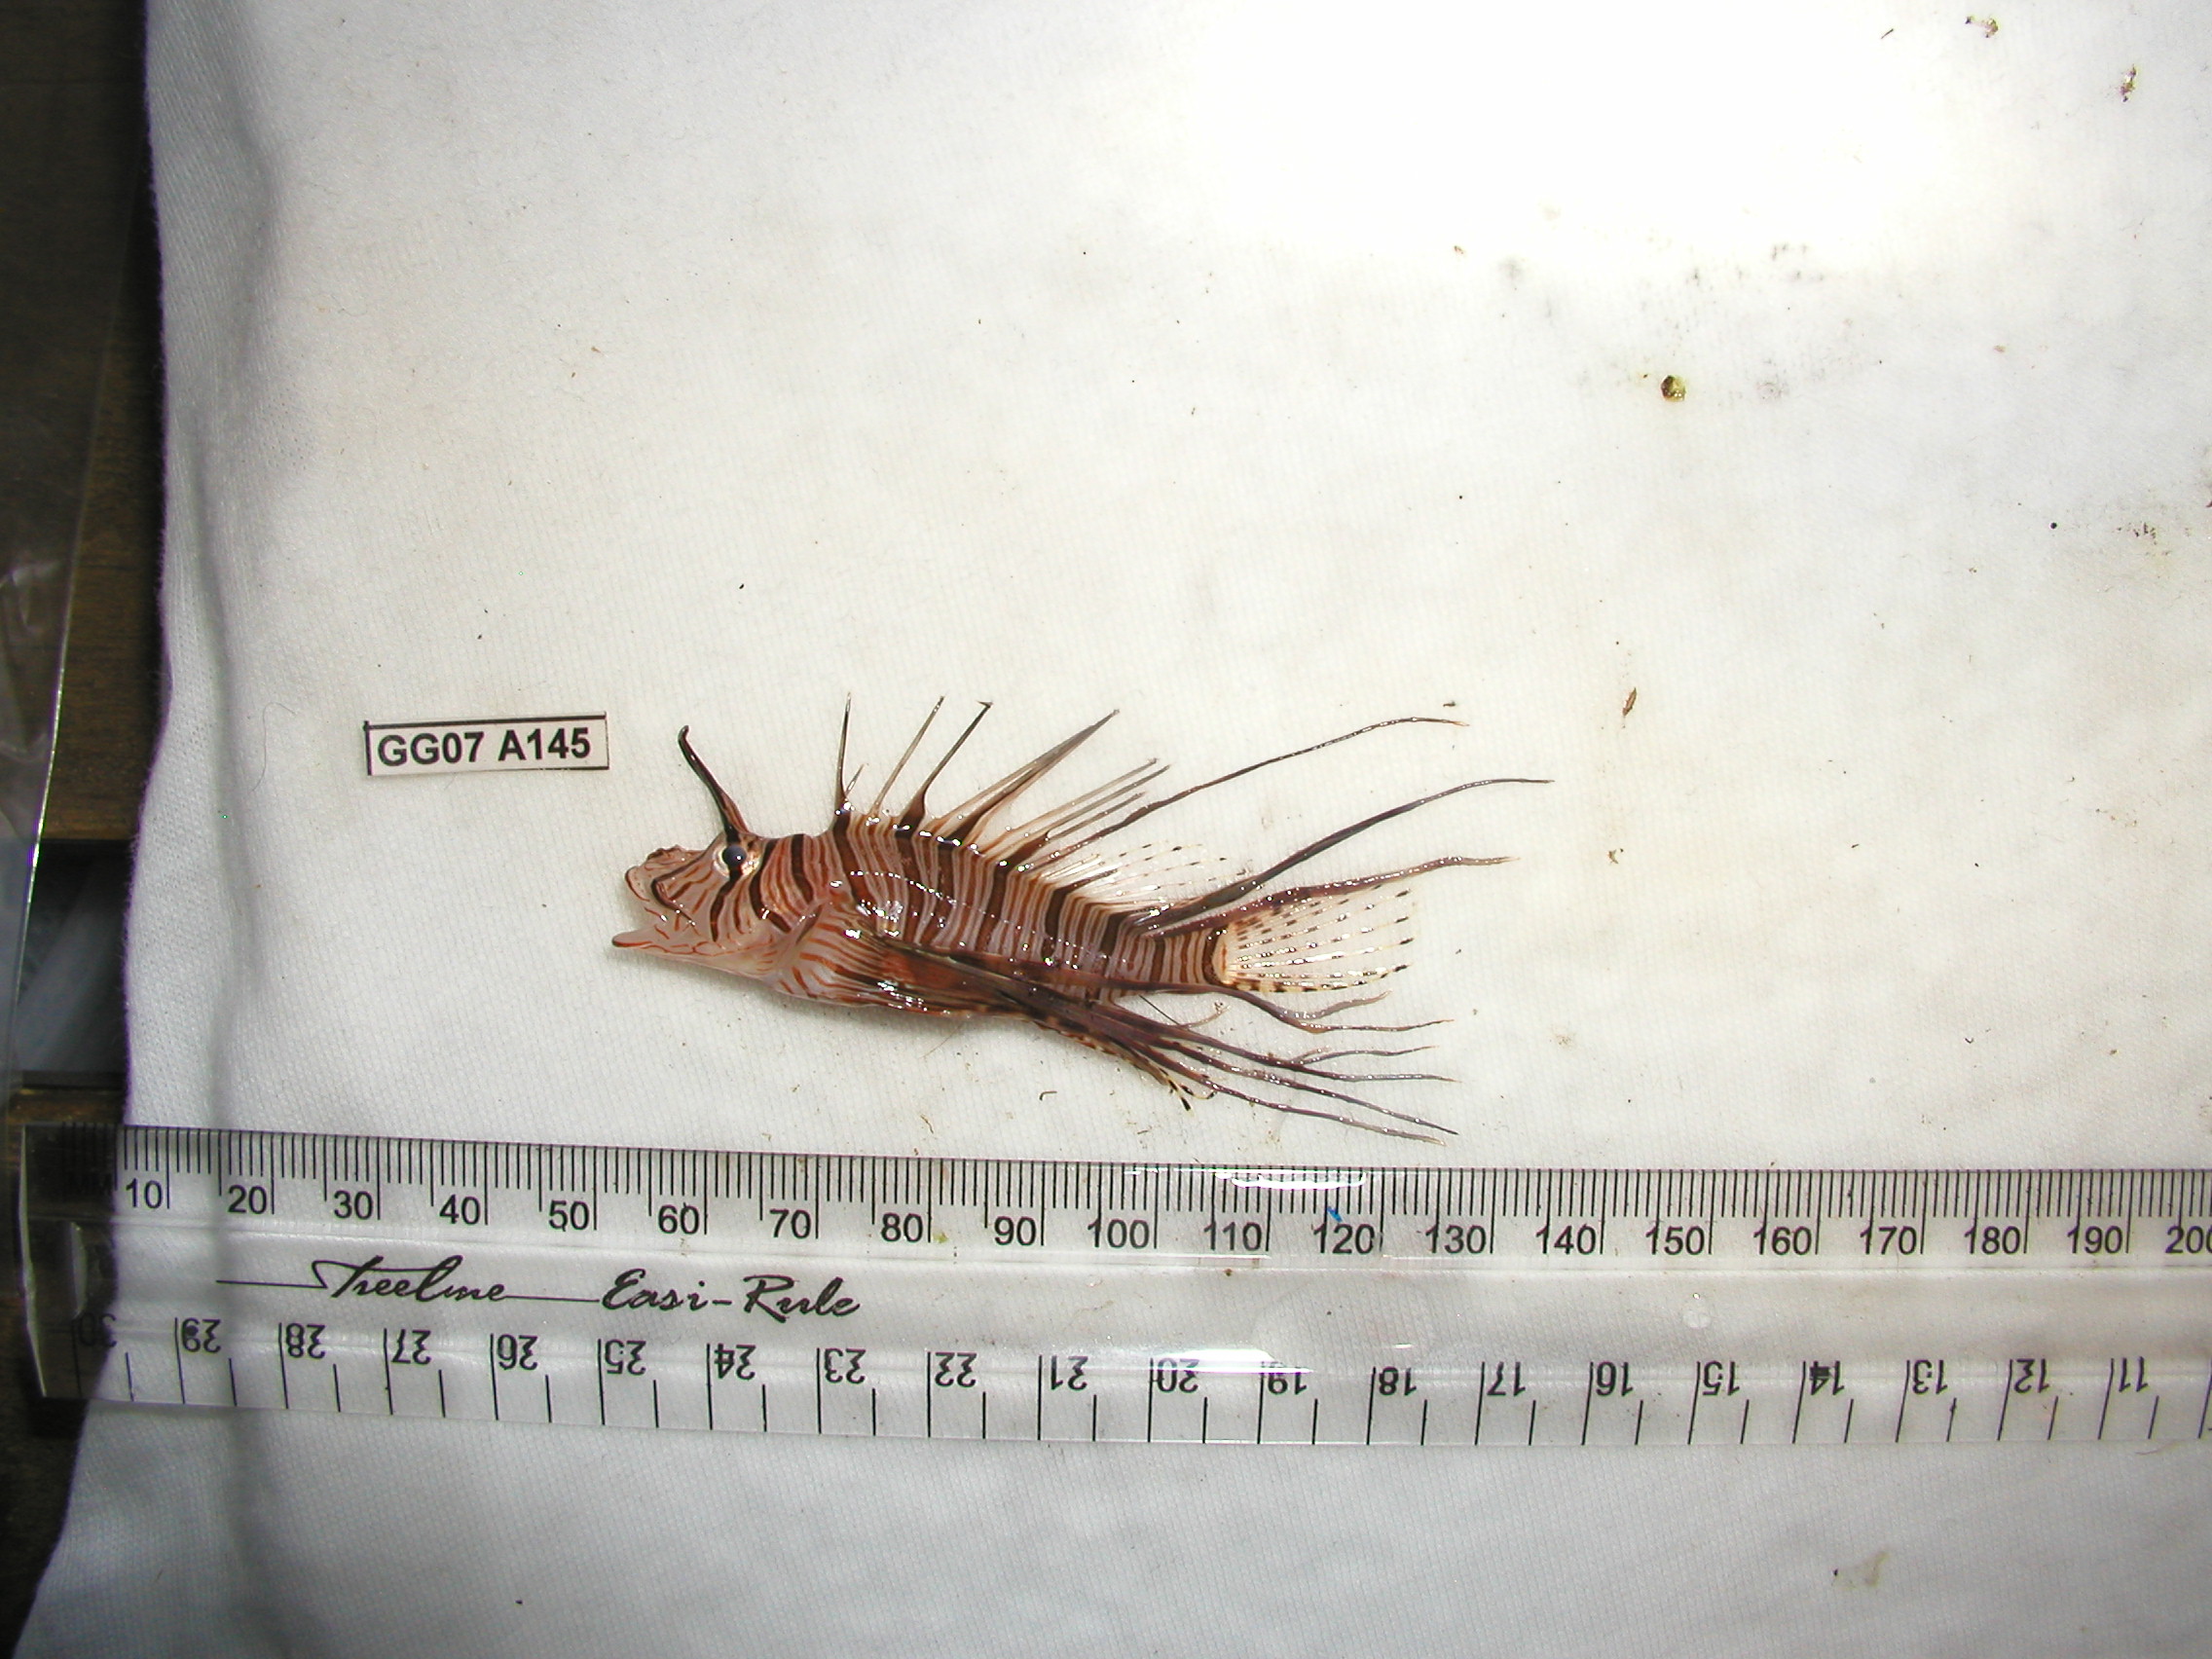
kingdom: Animalia
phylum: Chordata
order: Scorpaeniformes
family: Scorpaenidae
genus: Pterois
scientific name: Pterois miles
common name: Devil firefish
